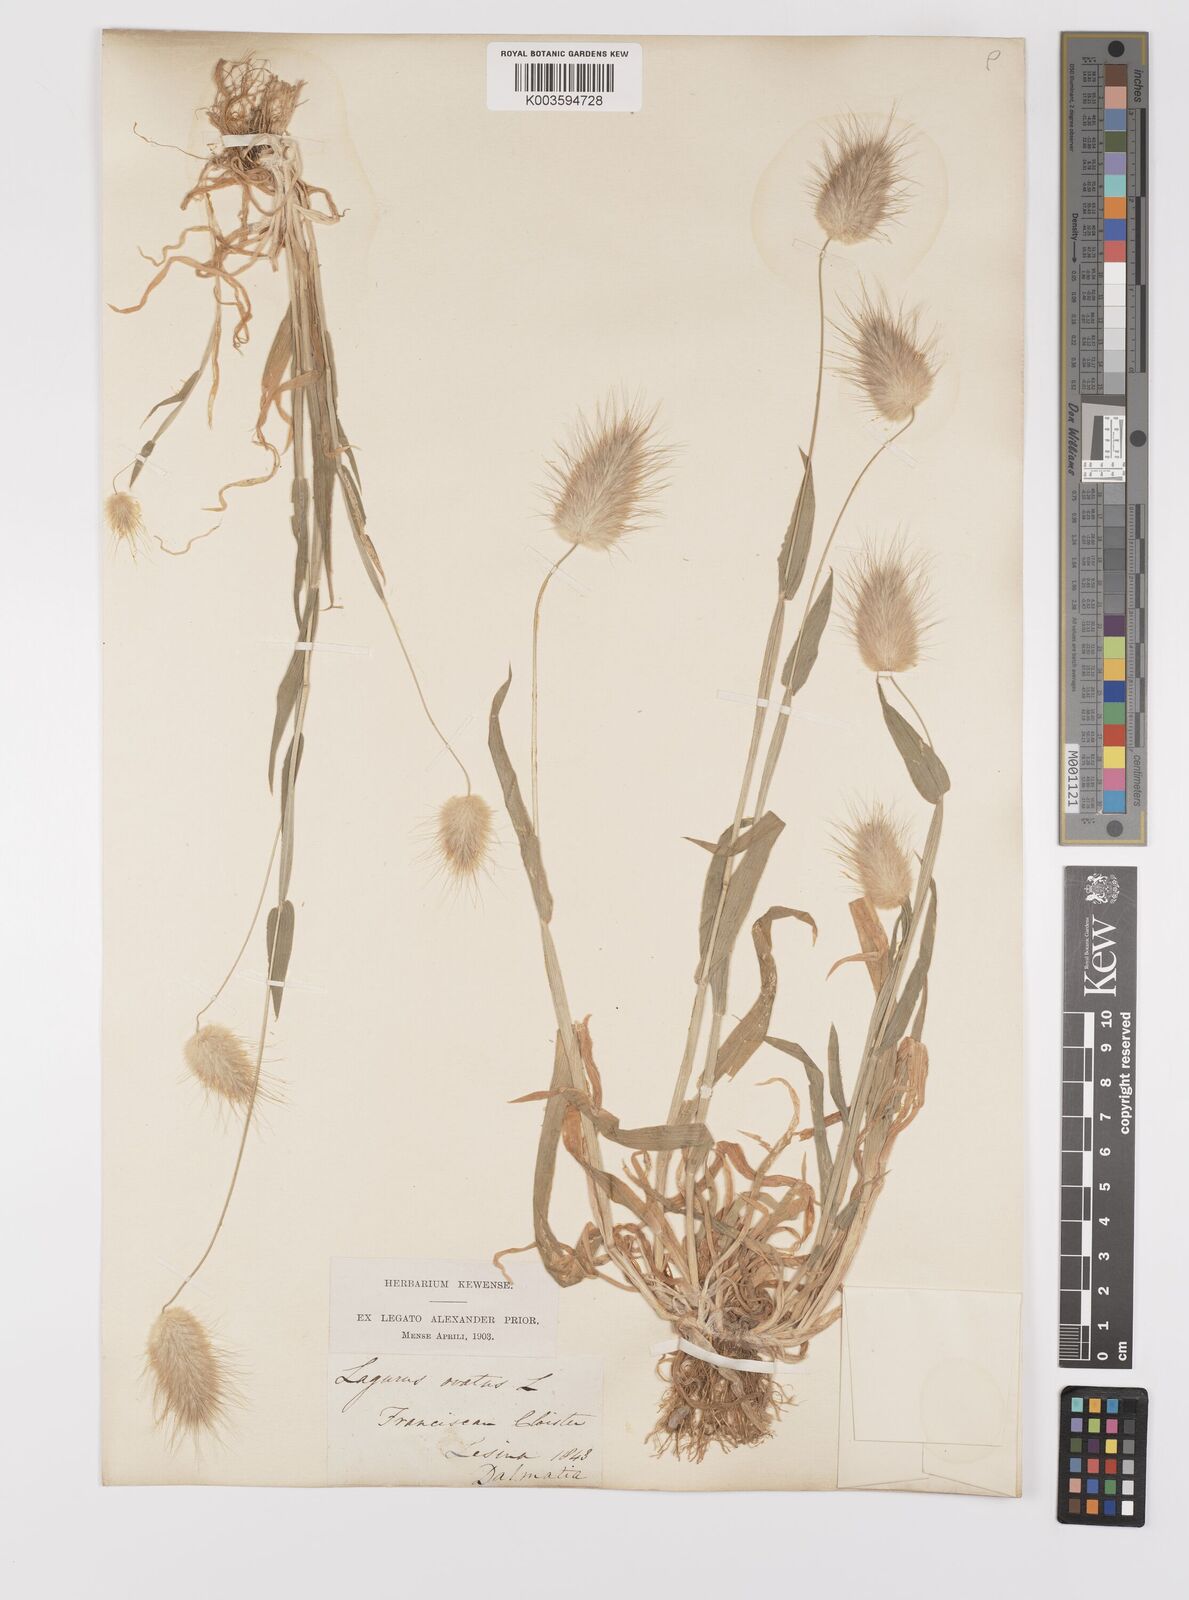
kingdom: Plantae
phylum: Tracheophyta
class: Liliopsida
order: Poales
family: Poaceae
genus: Lagurus
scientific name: Lagurus ovatus
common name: Hare's-tail
